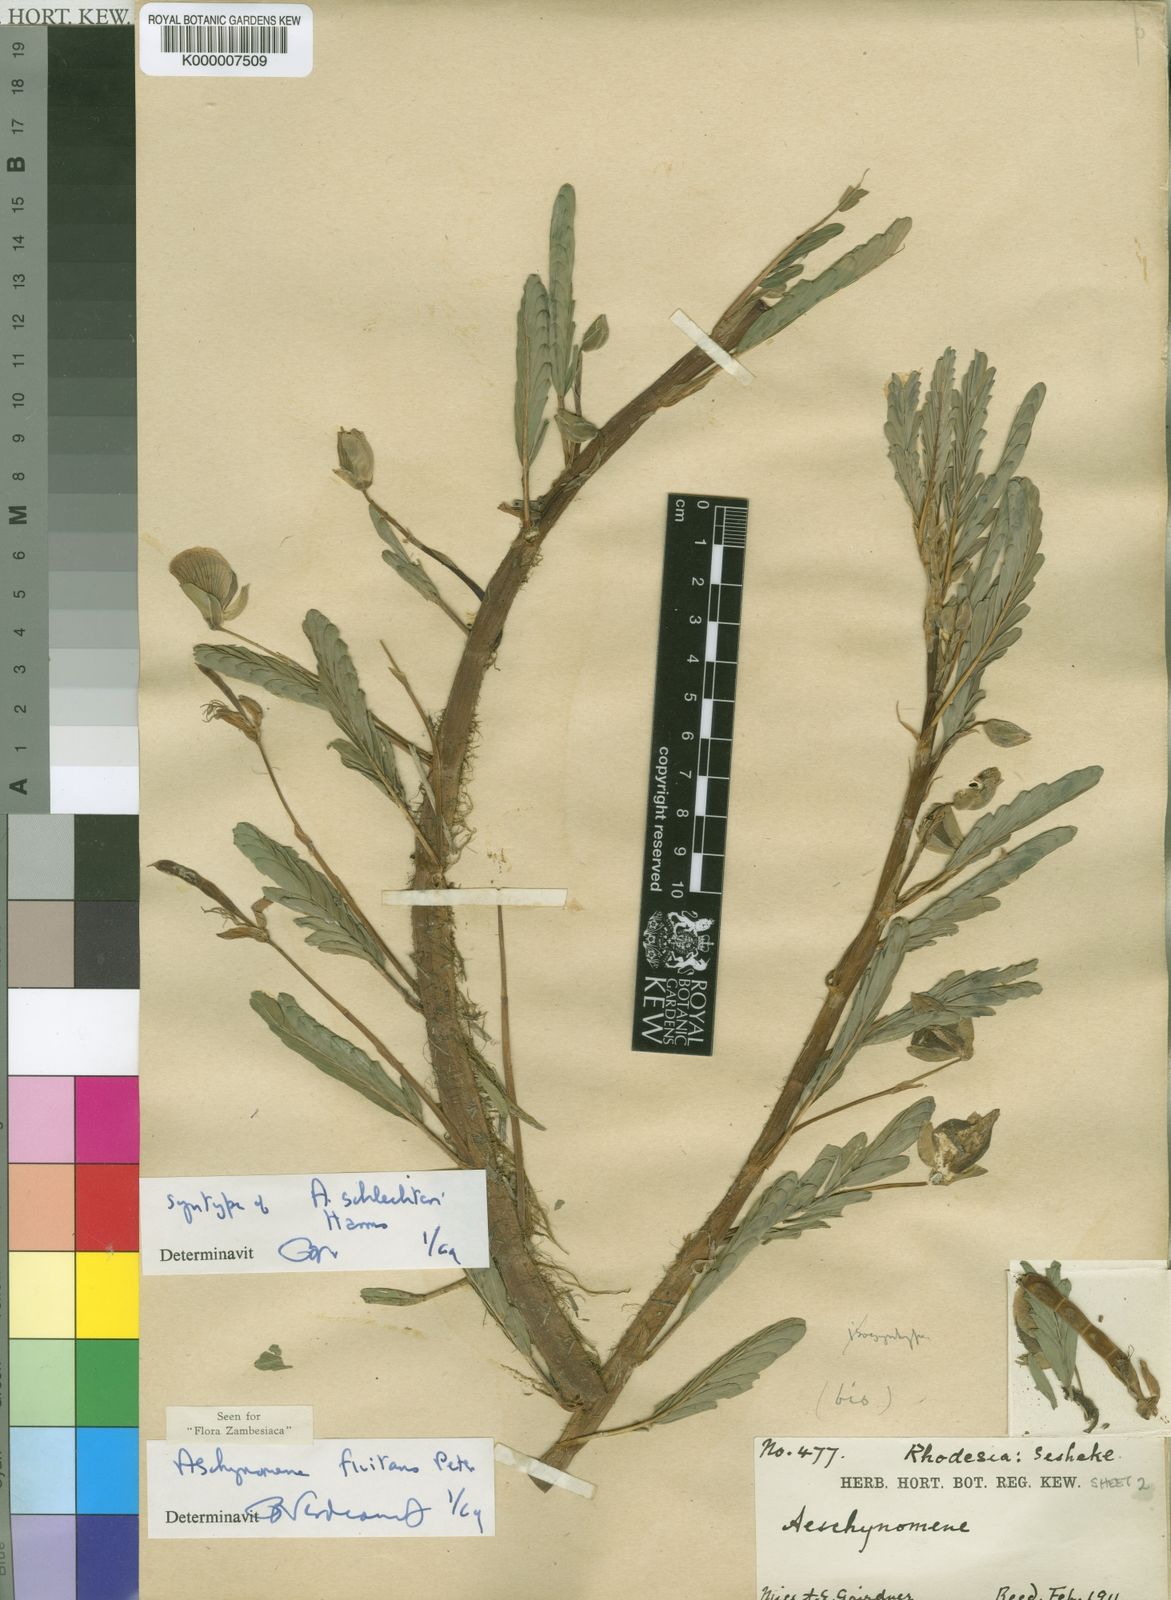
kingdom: Plantae
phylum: Tracheophyta
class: Magnoliopsida
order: Fabales
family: Fabaceae
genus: Aeschynomene
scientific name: Aeschynomene fluitans
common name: Giant water sensitive plant
